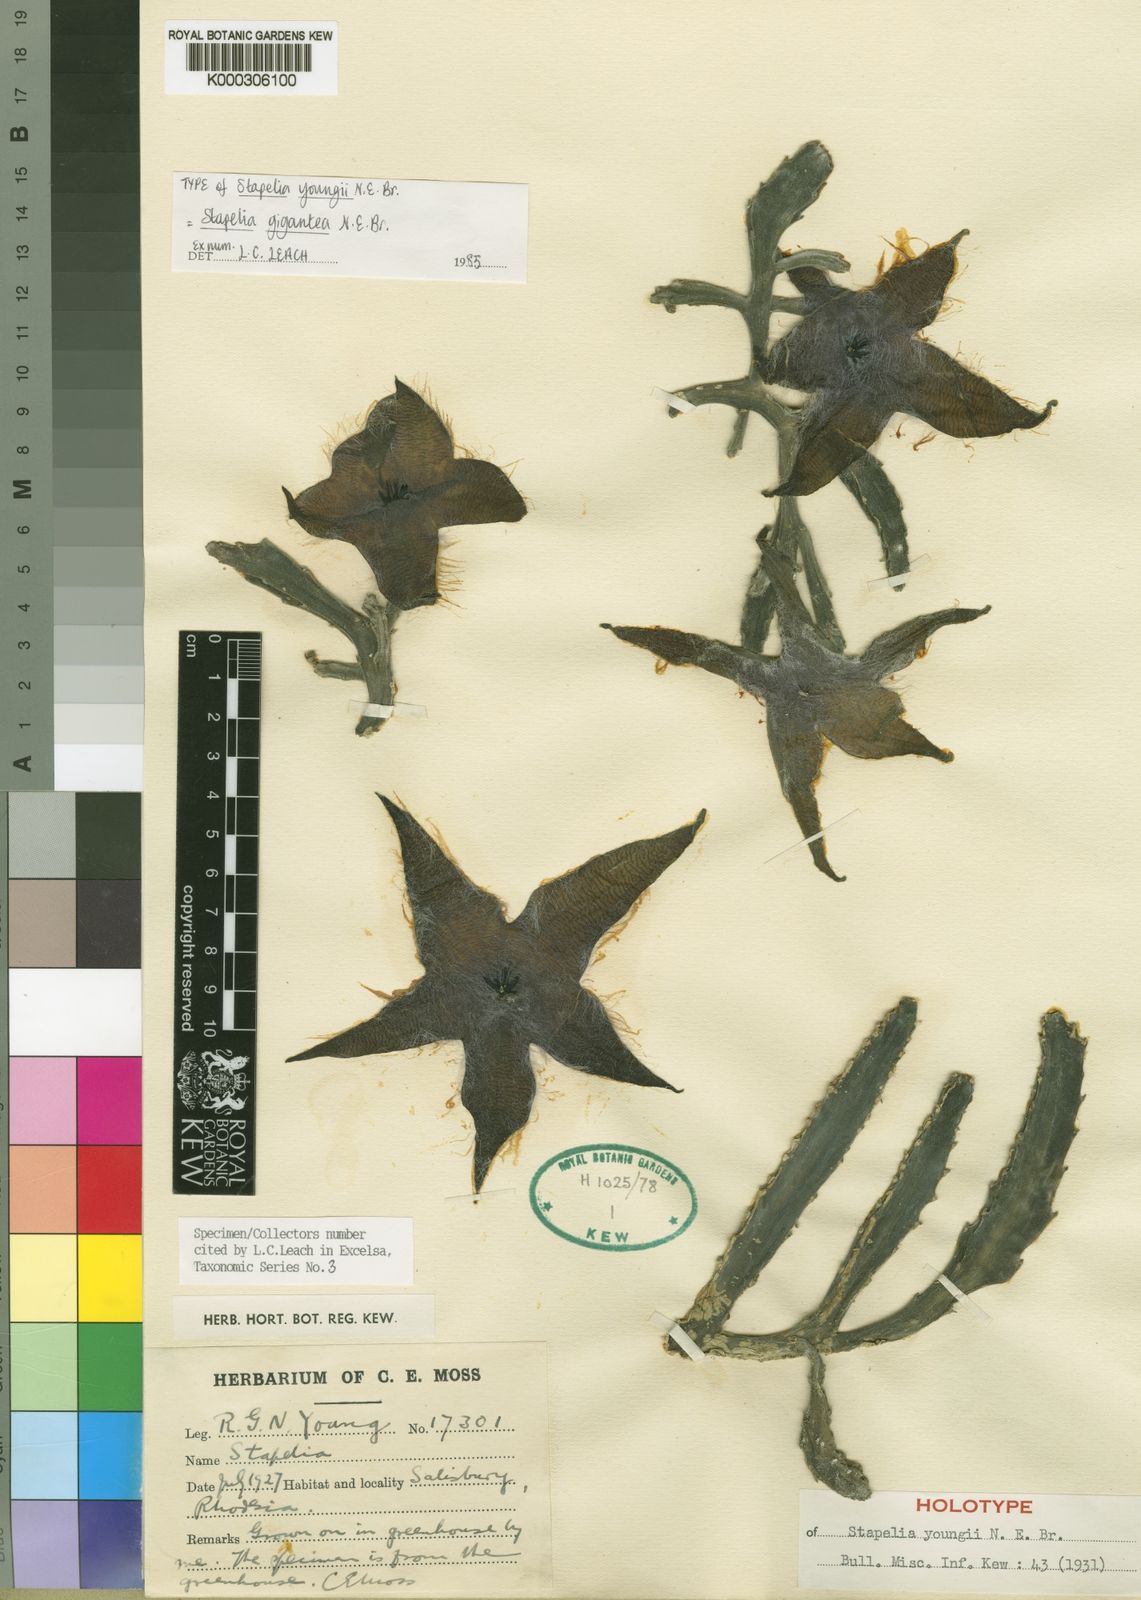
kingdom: Plantae
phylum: Tracheophyta
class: Magnoliopsida
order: Gentianales
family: Apocynaceae
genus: Ceropegia
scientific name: Ceropegia gigantea
